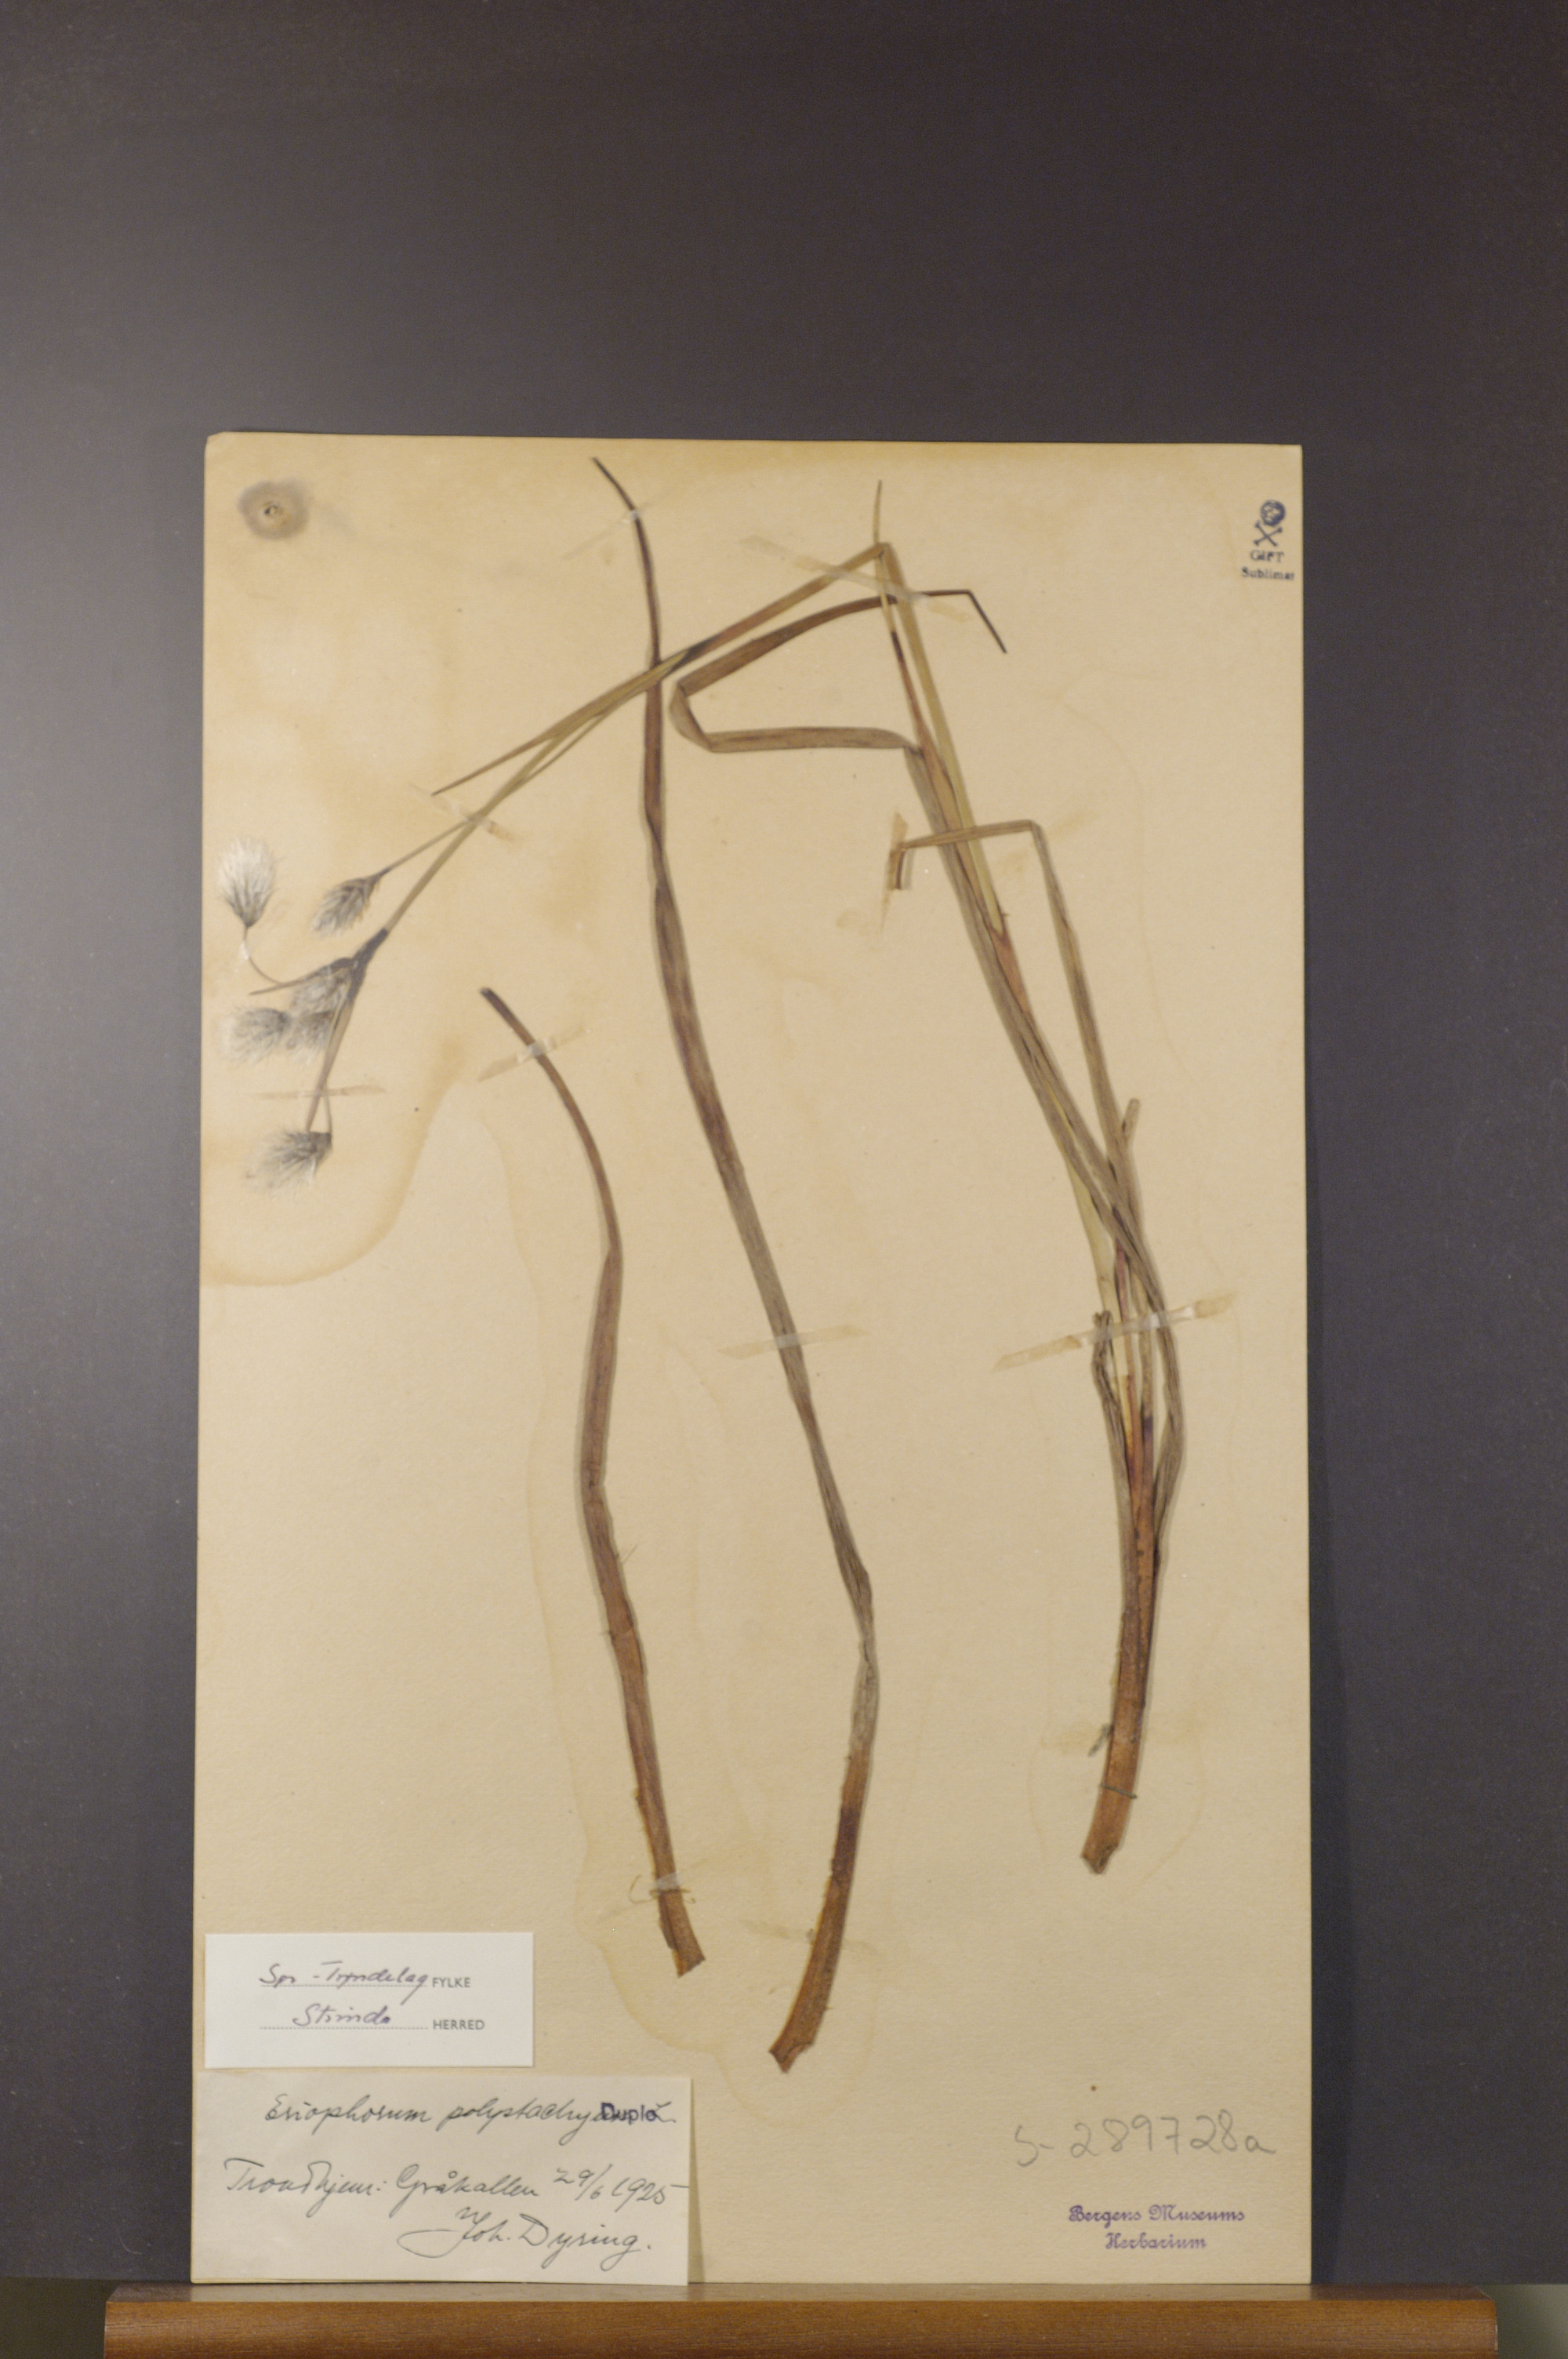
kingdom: Plantae
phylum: Tracheophyta
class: Liliopsida
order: Poales
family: Cyperaceae
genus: Eriophorum
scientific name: Eriophorum angustifolium
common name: Common cottongrass
